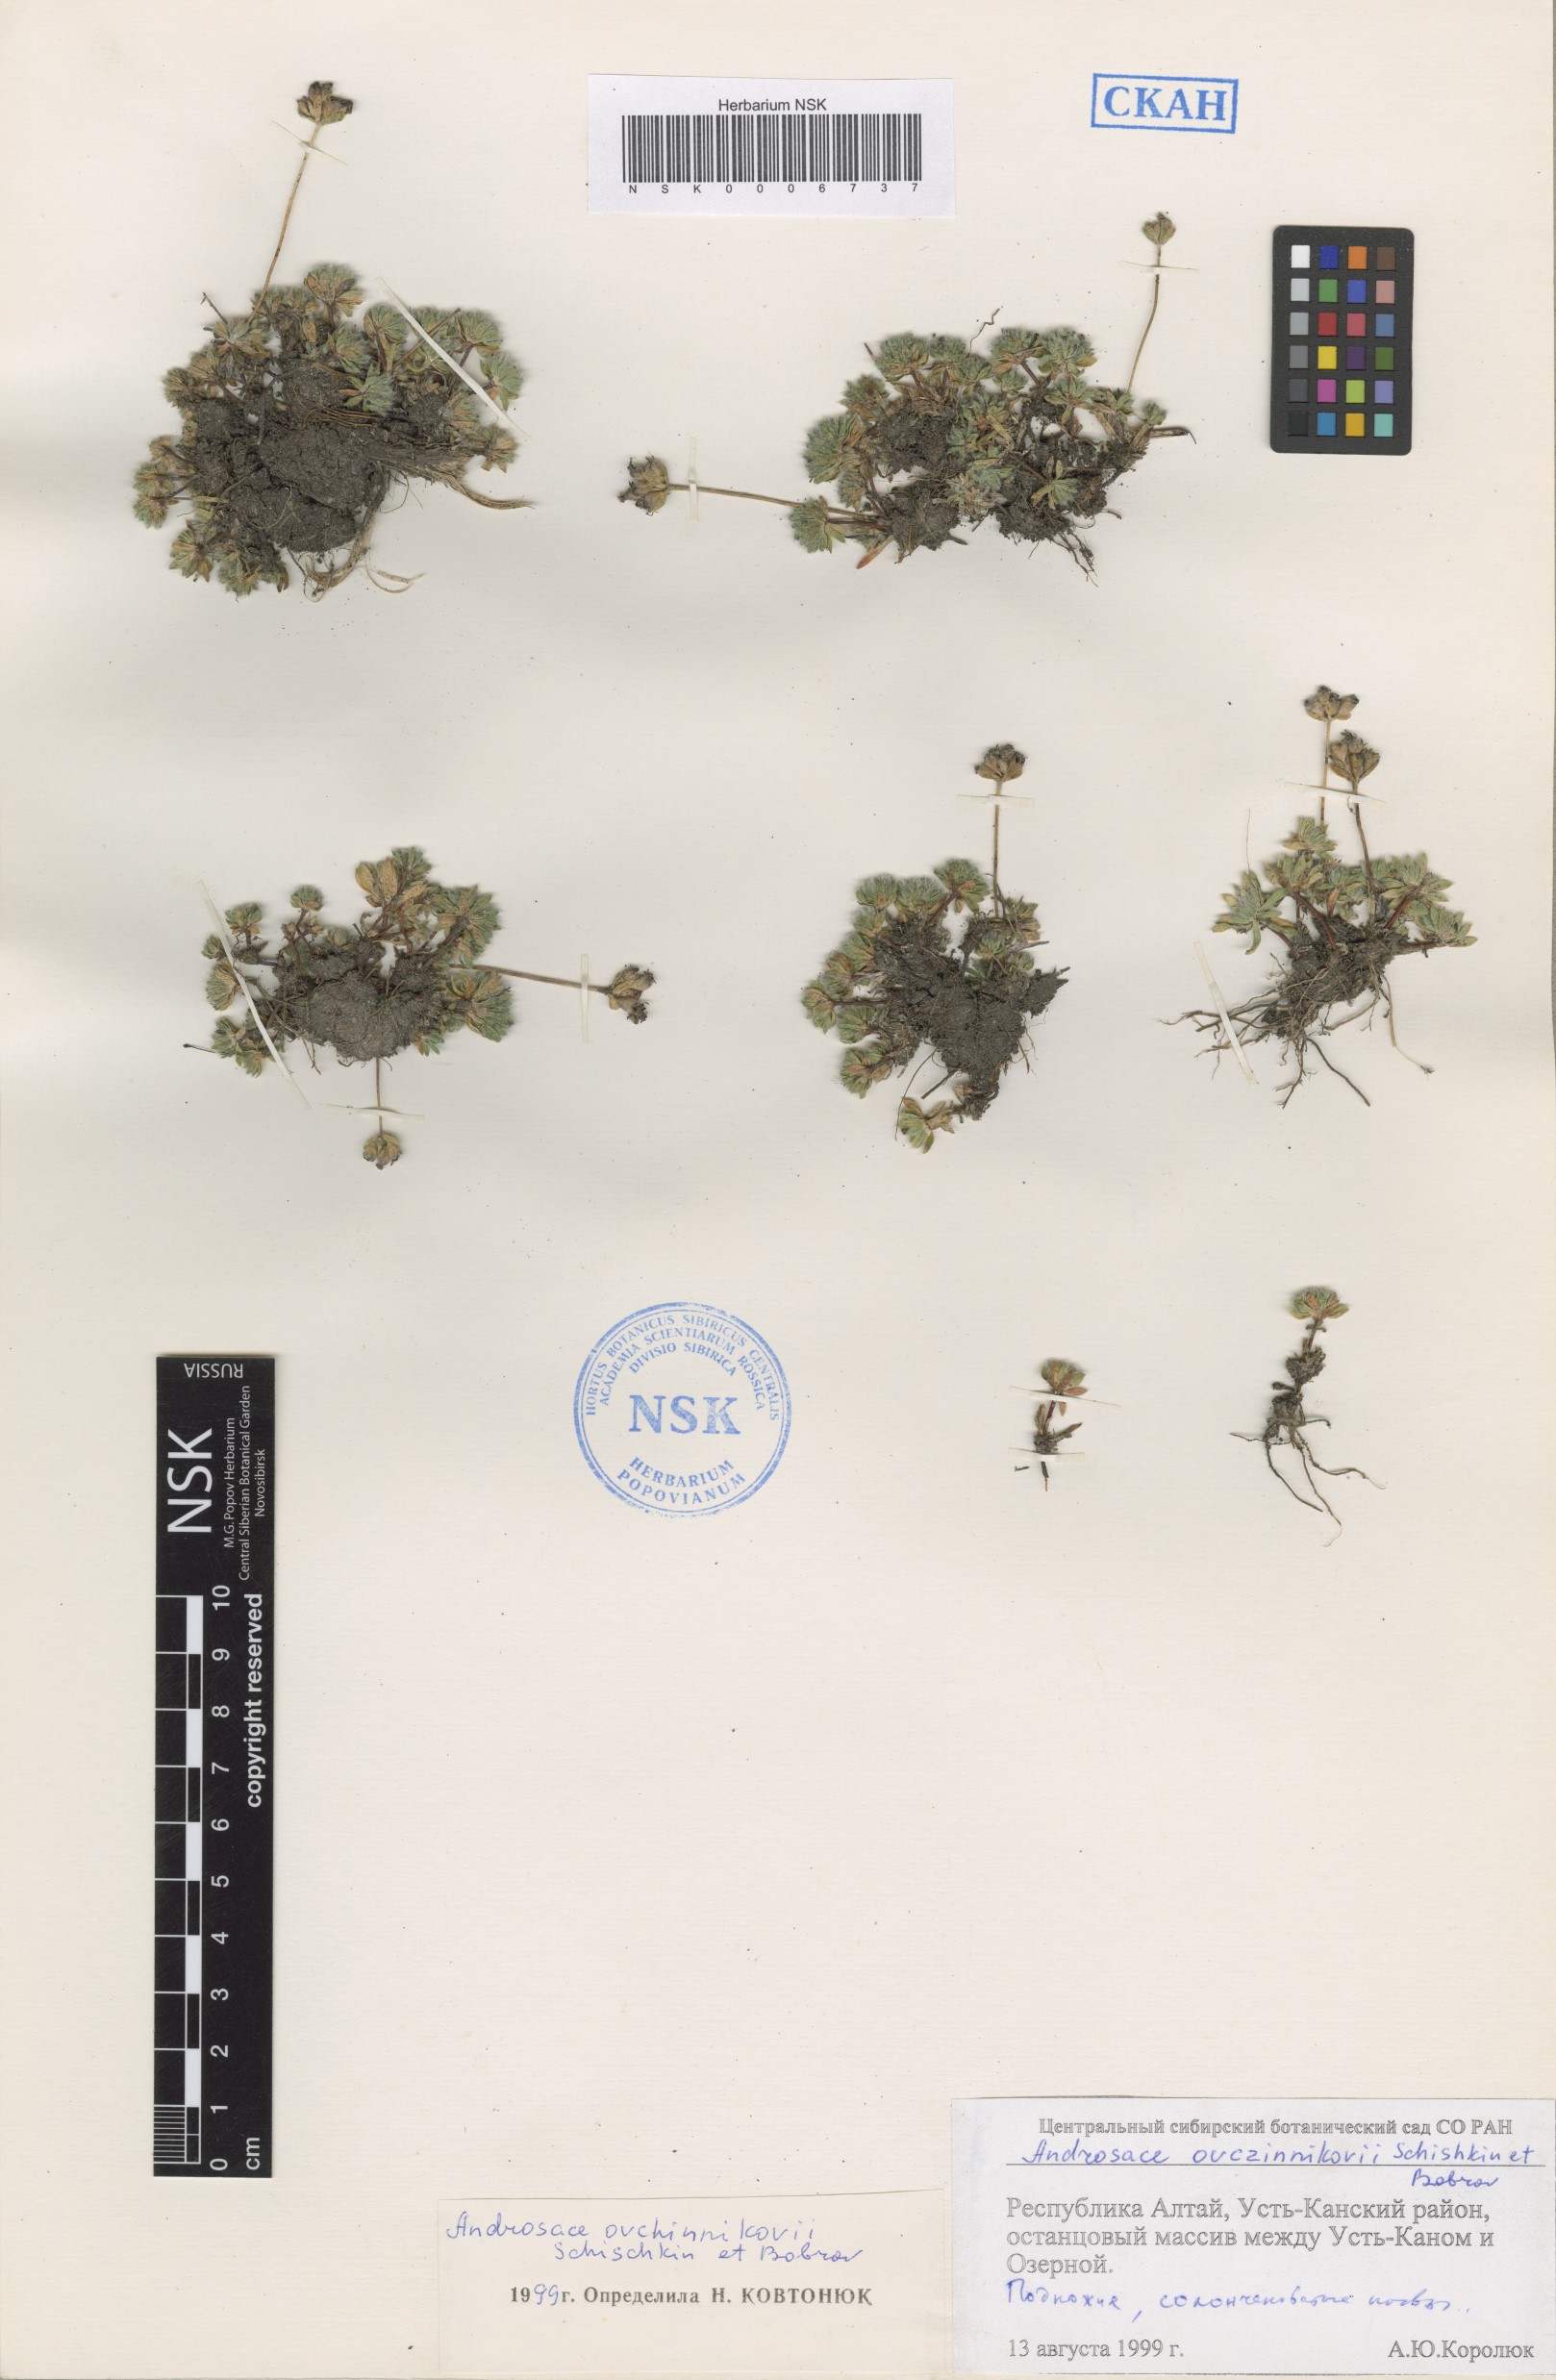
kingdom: Plantae
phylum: Tracheophyta
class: Magnoliopsida
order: Ericales
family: Primulaceae
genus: Androsace
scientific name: Androsace ovczinnikovii
